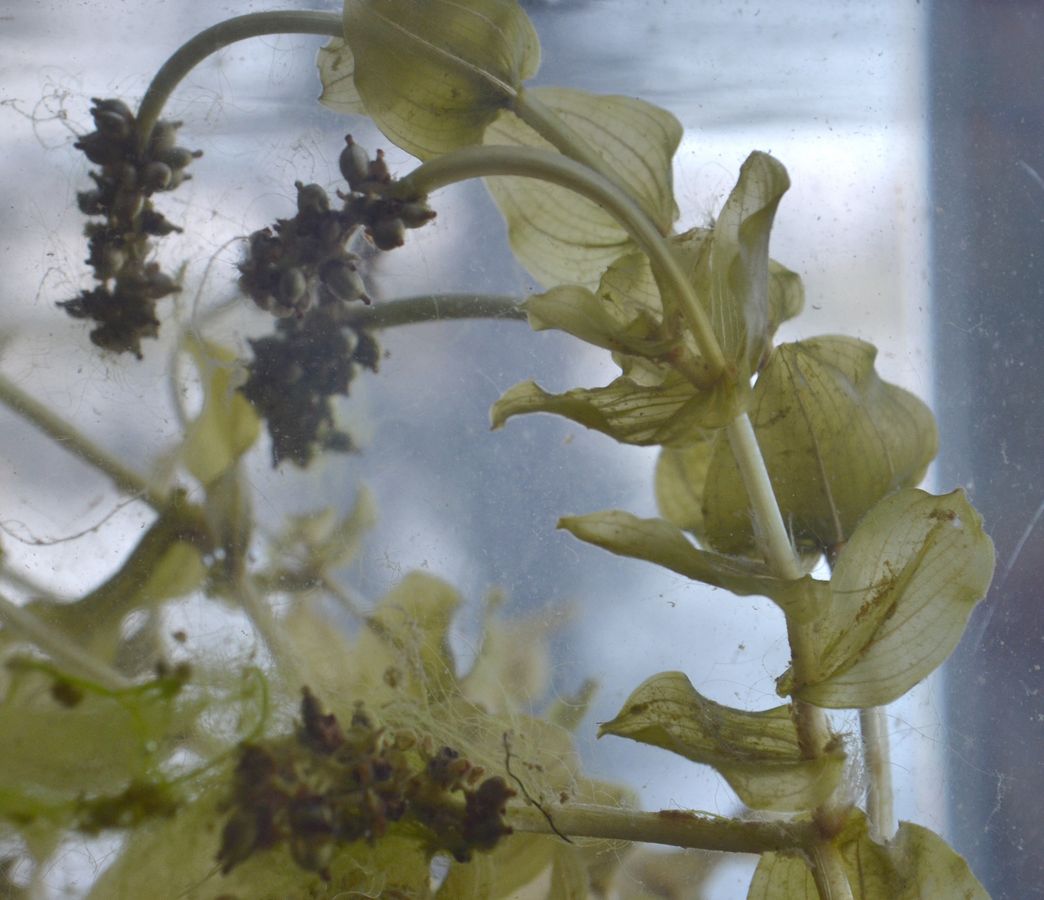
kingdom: Plantae
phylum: Tracheophyta
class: Liliopsida
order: Alismatales
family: Potamogetonaceae
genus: Potamogeton
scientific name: Potamogeton perfoliatus
